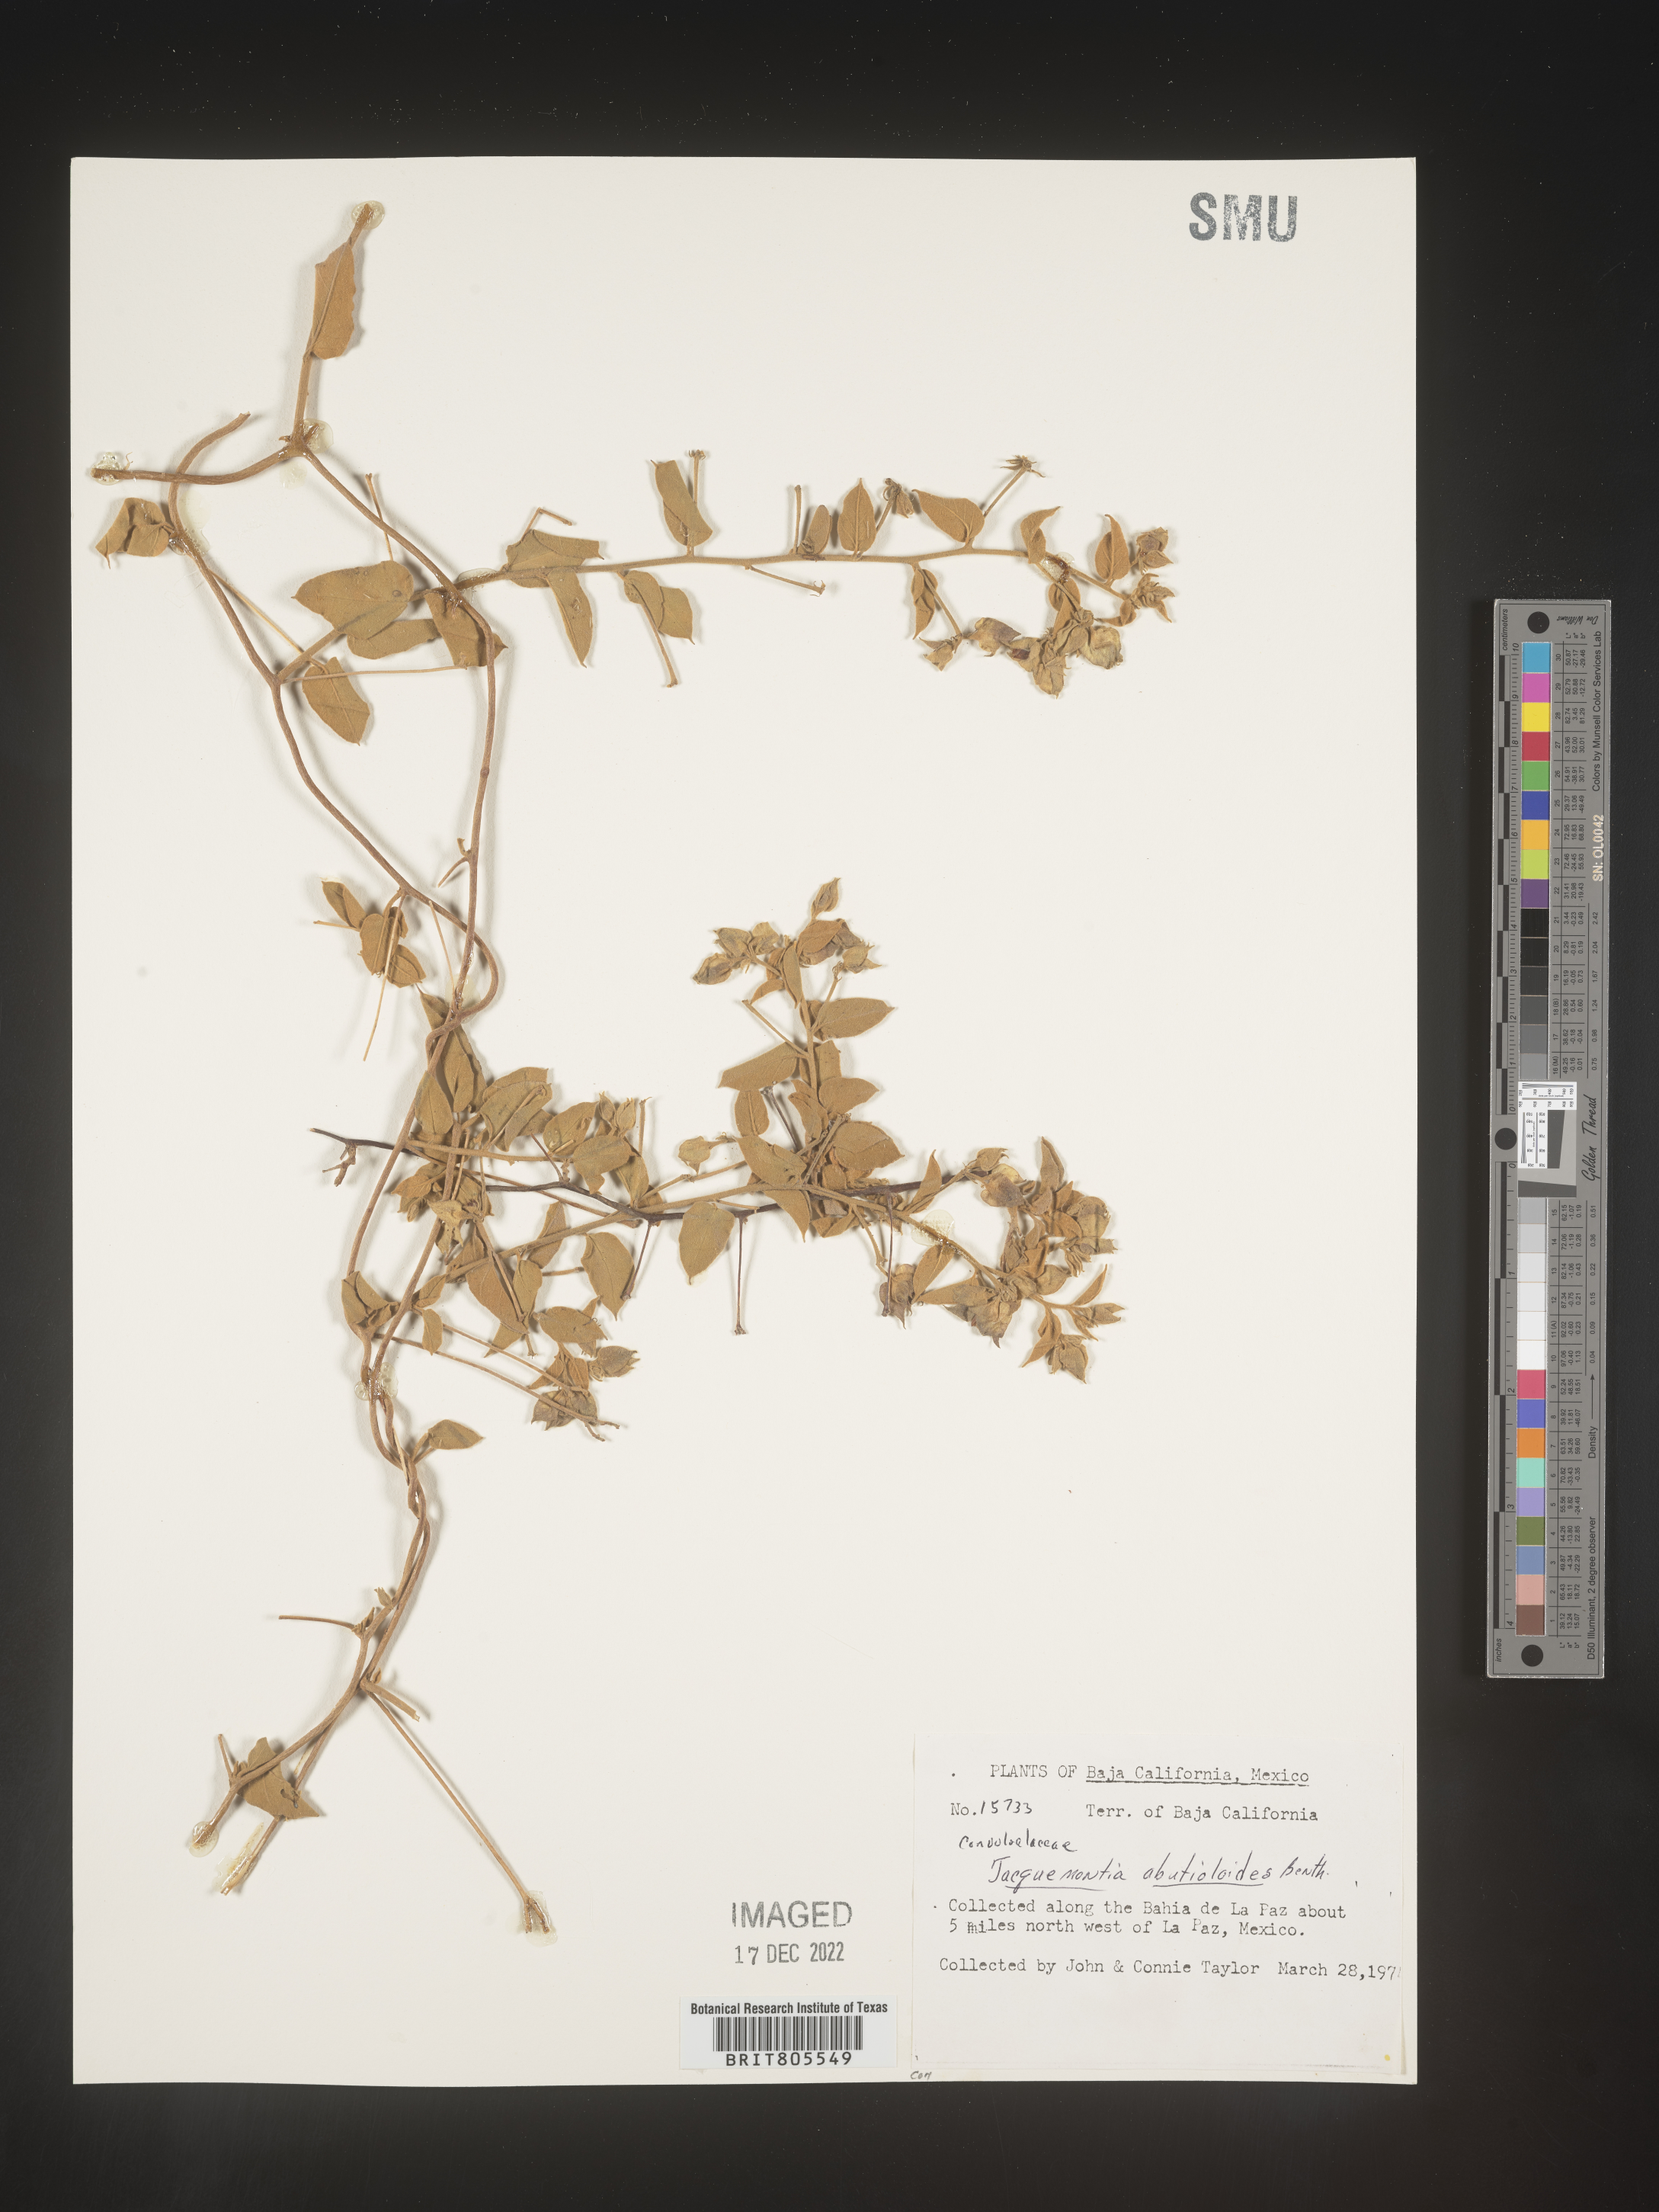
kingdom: Plantae
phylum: Tracheophyta
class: Magnoliopsida
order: Solanales
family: Convolvulaceae
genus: Jacquemontia
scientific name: Jacquemontia
